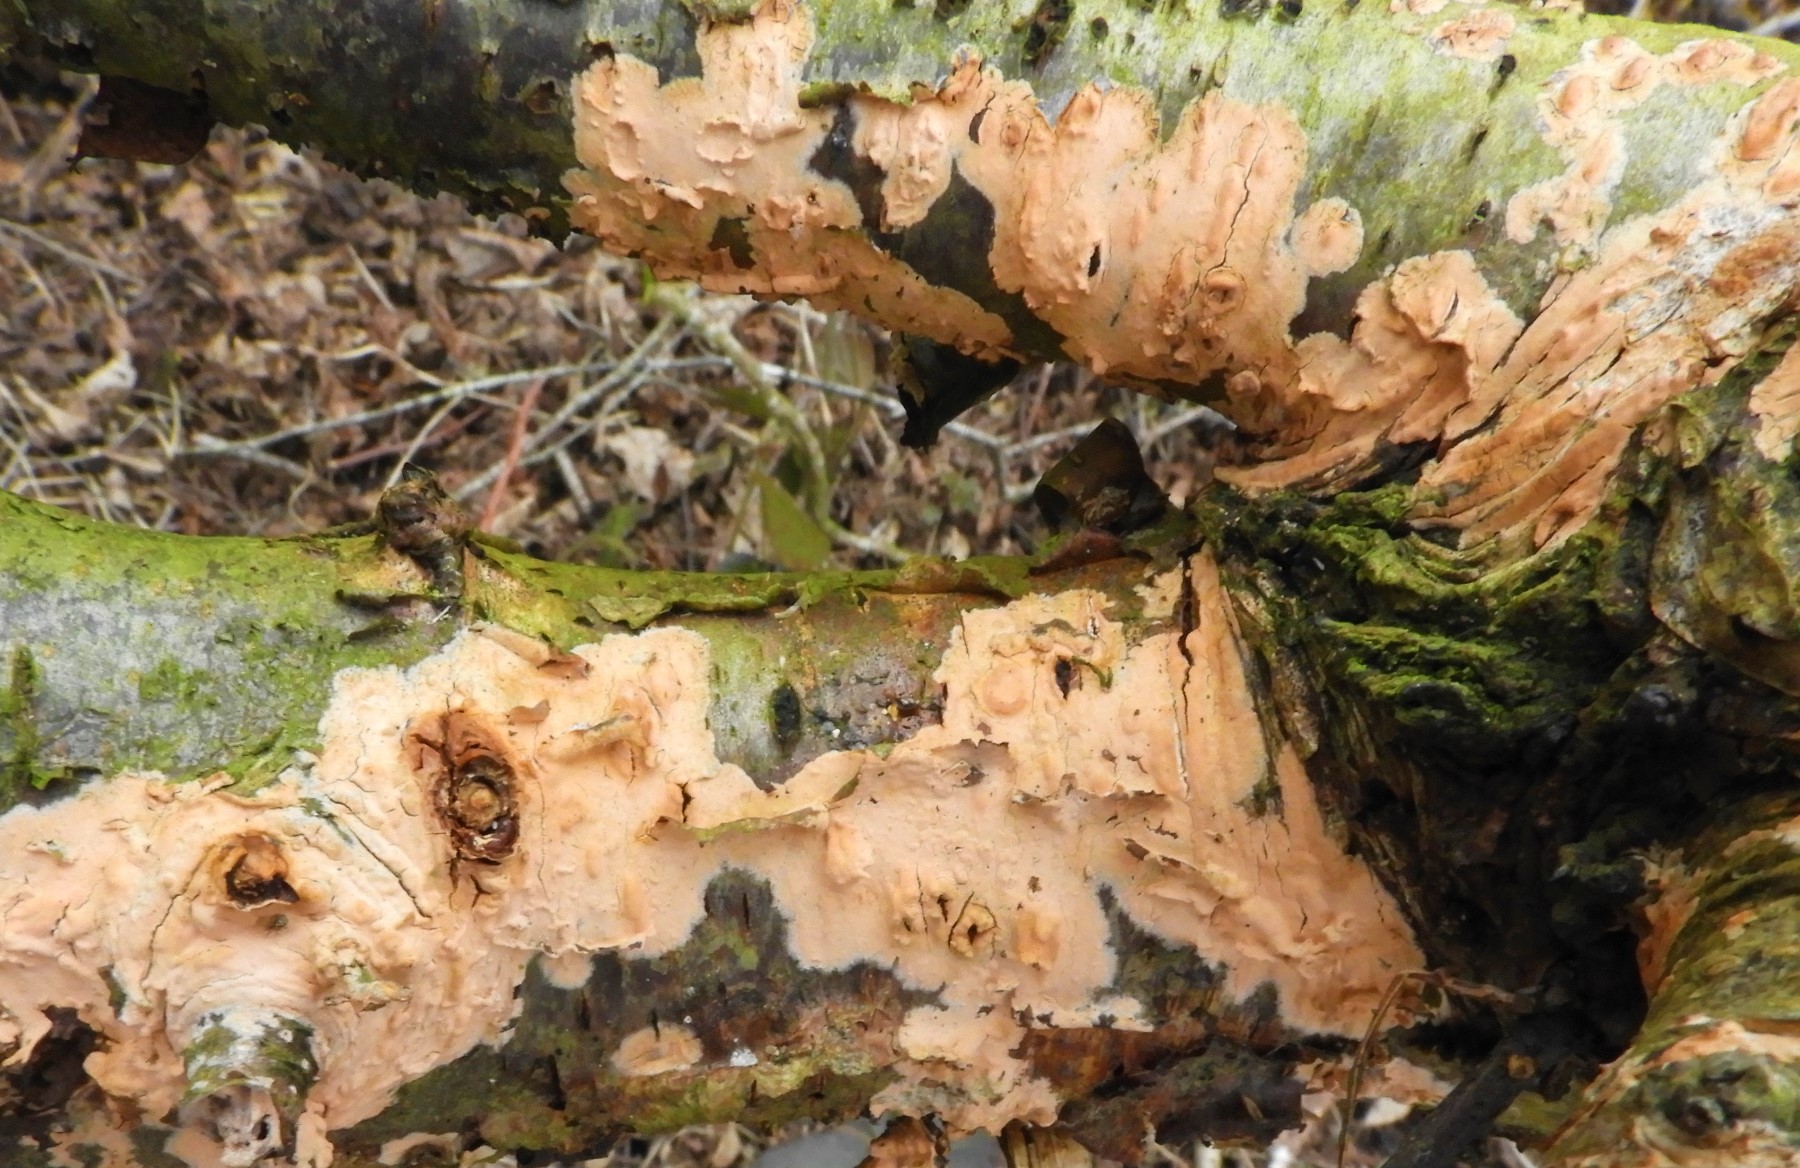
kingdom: Fungi
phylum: Basidiomycota
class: Agaricomycetes
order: Russulales
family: Peniophoraceae
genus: Peniophora
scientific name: Peniophora incarnata
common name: laksefarvet voksskind
